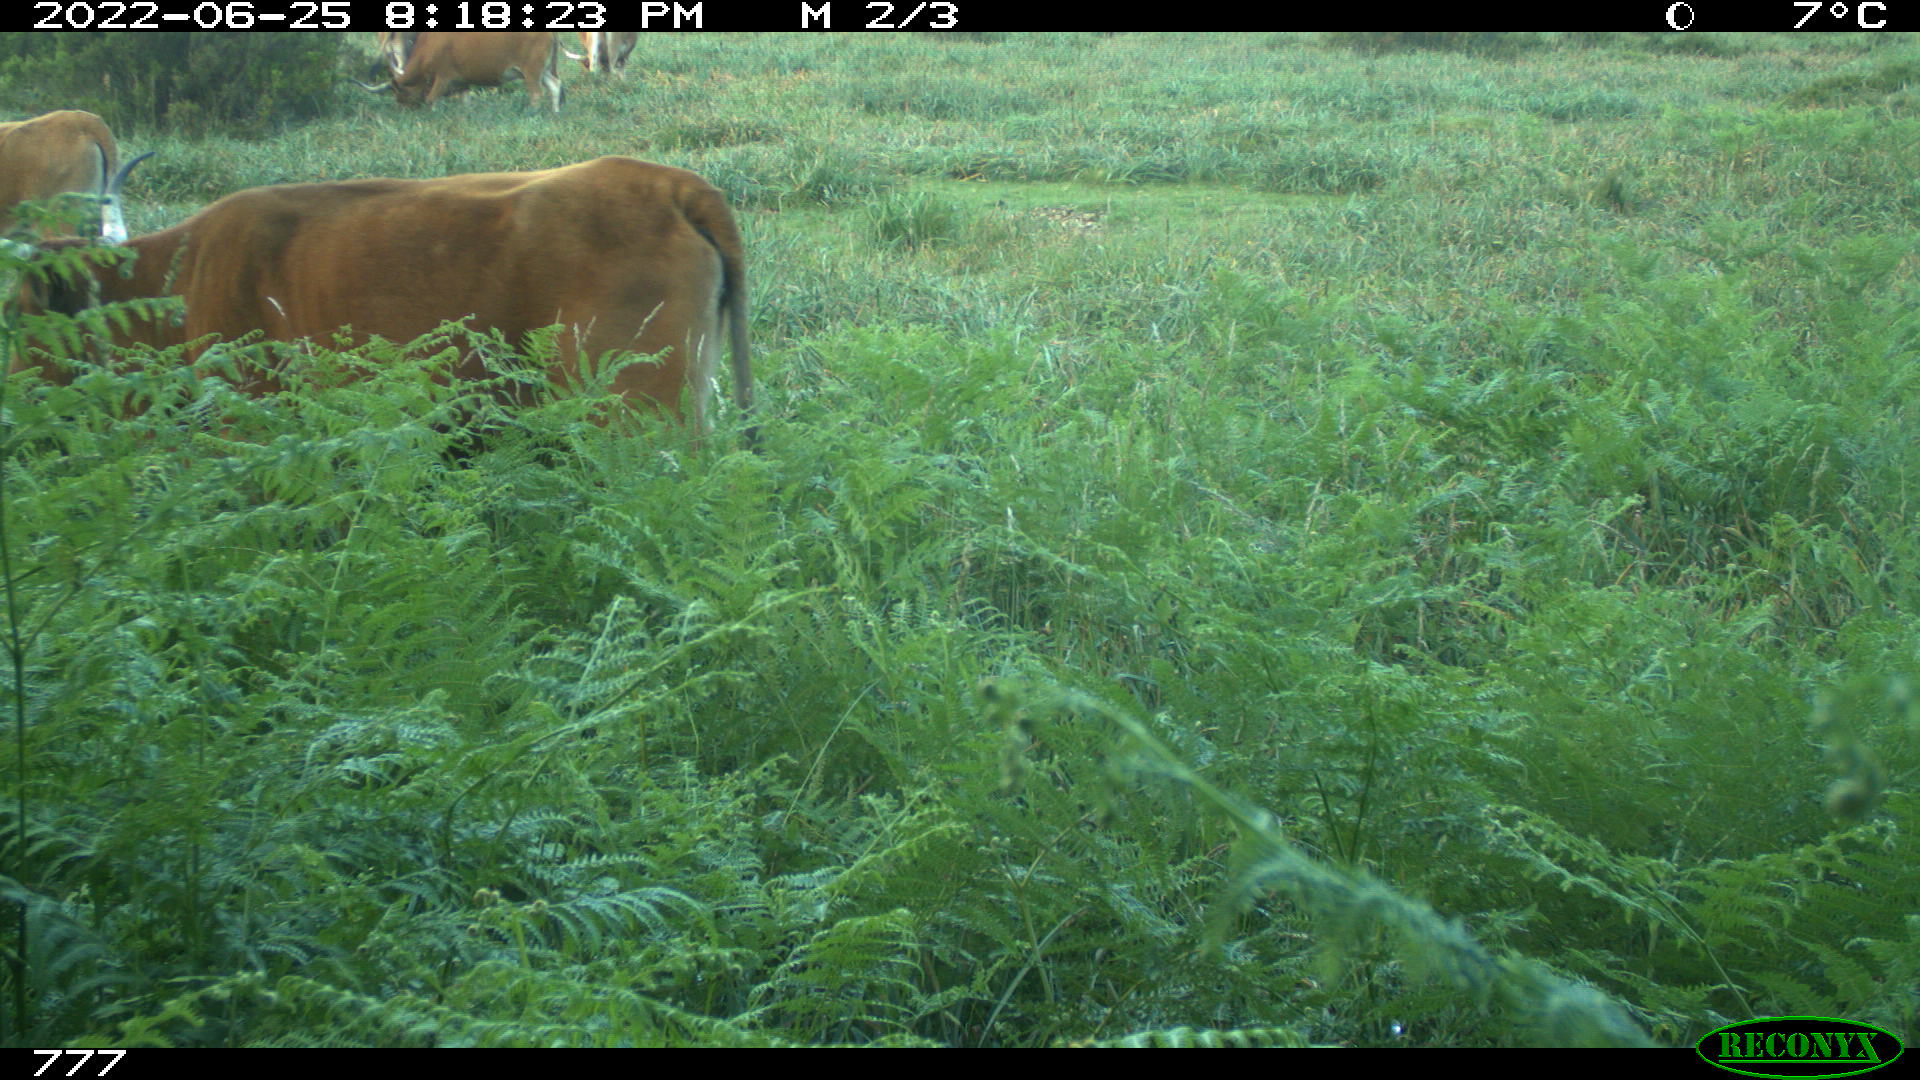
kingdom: Animalia
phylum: Chordata
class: Mammalia
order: Artiodactyla
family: Bovidae
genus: Bos
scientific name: Bos taurus
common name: Domesticated cattle
